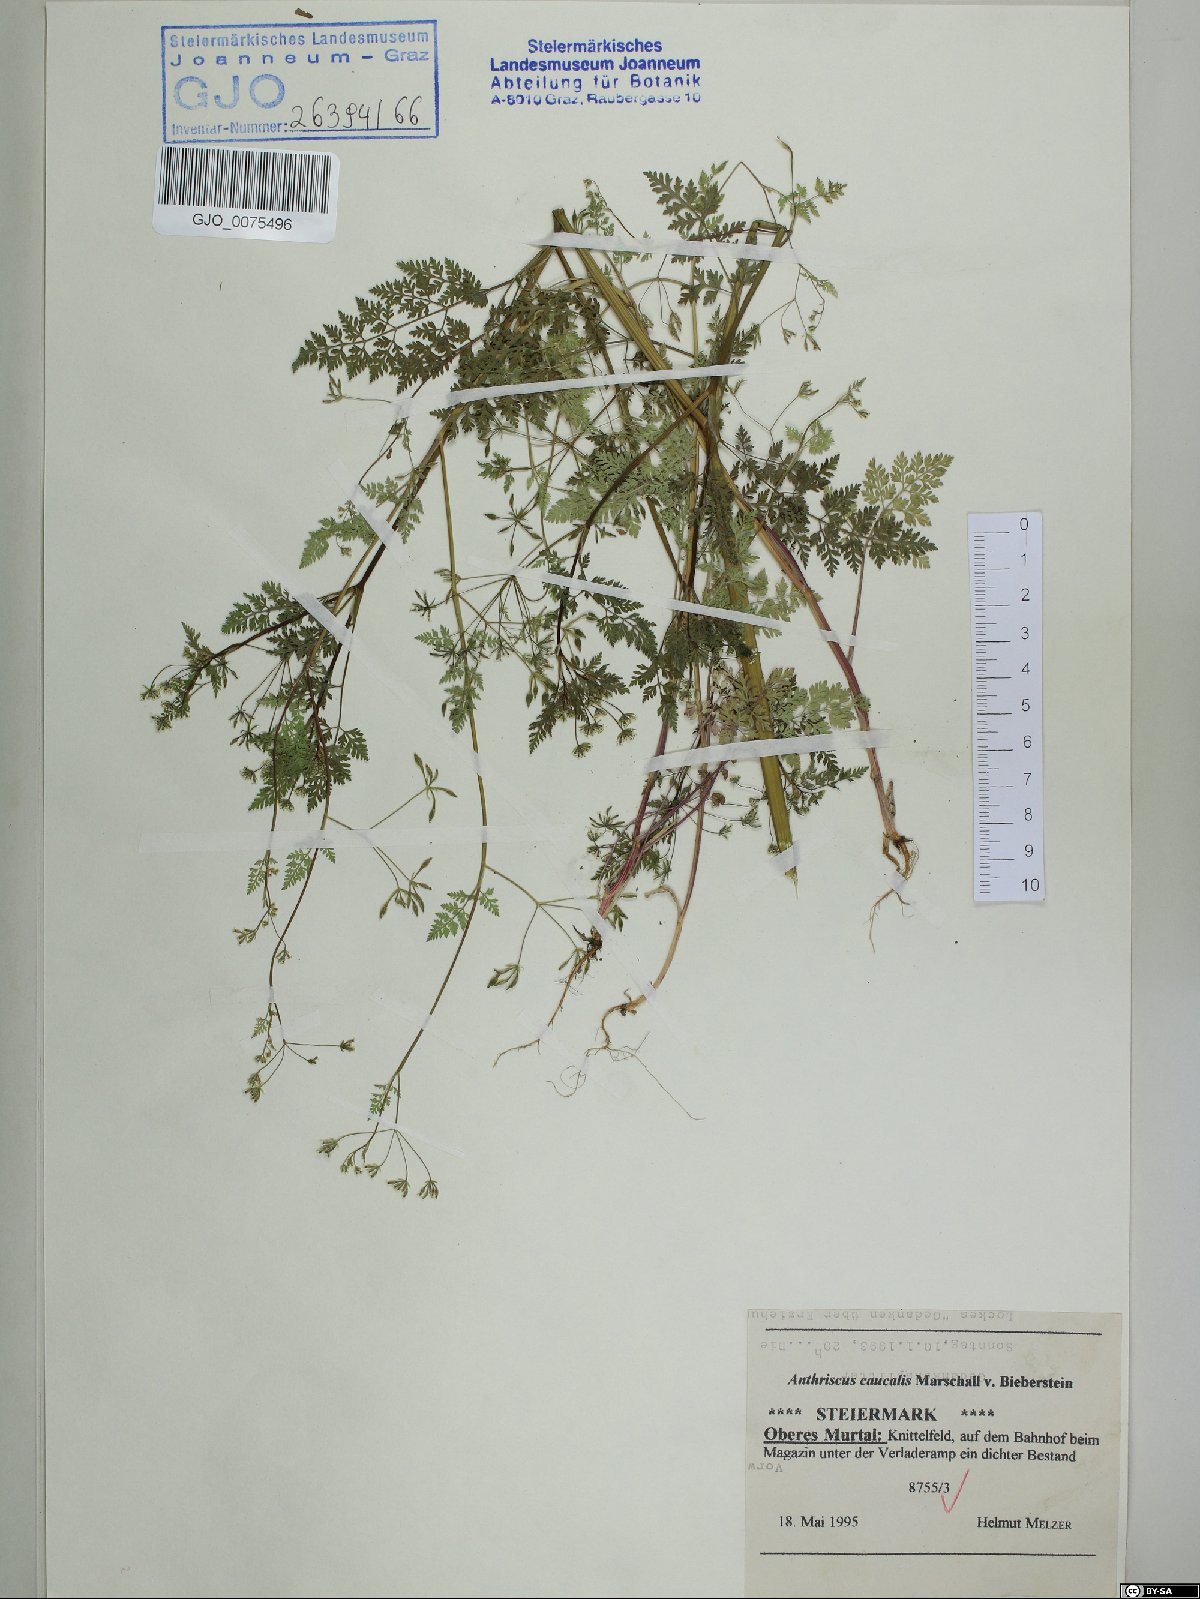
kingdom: Plantae
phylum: Tracheophyta
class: Magnoliopsida
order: Apiales
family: Apiaceae
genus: Anthriscus
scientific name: Anthriscus
